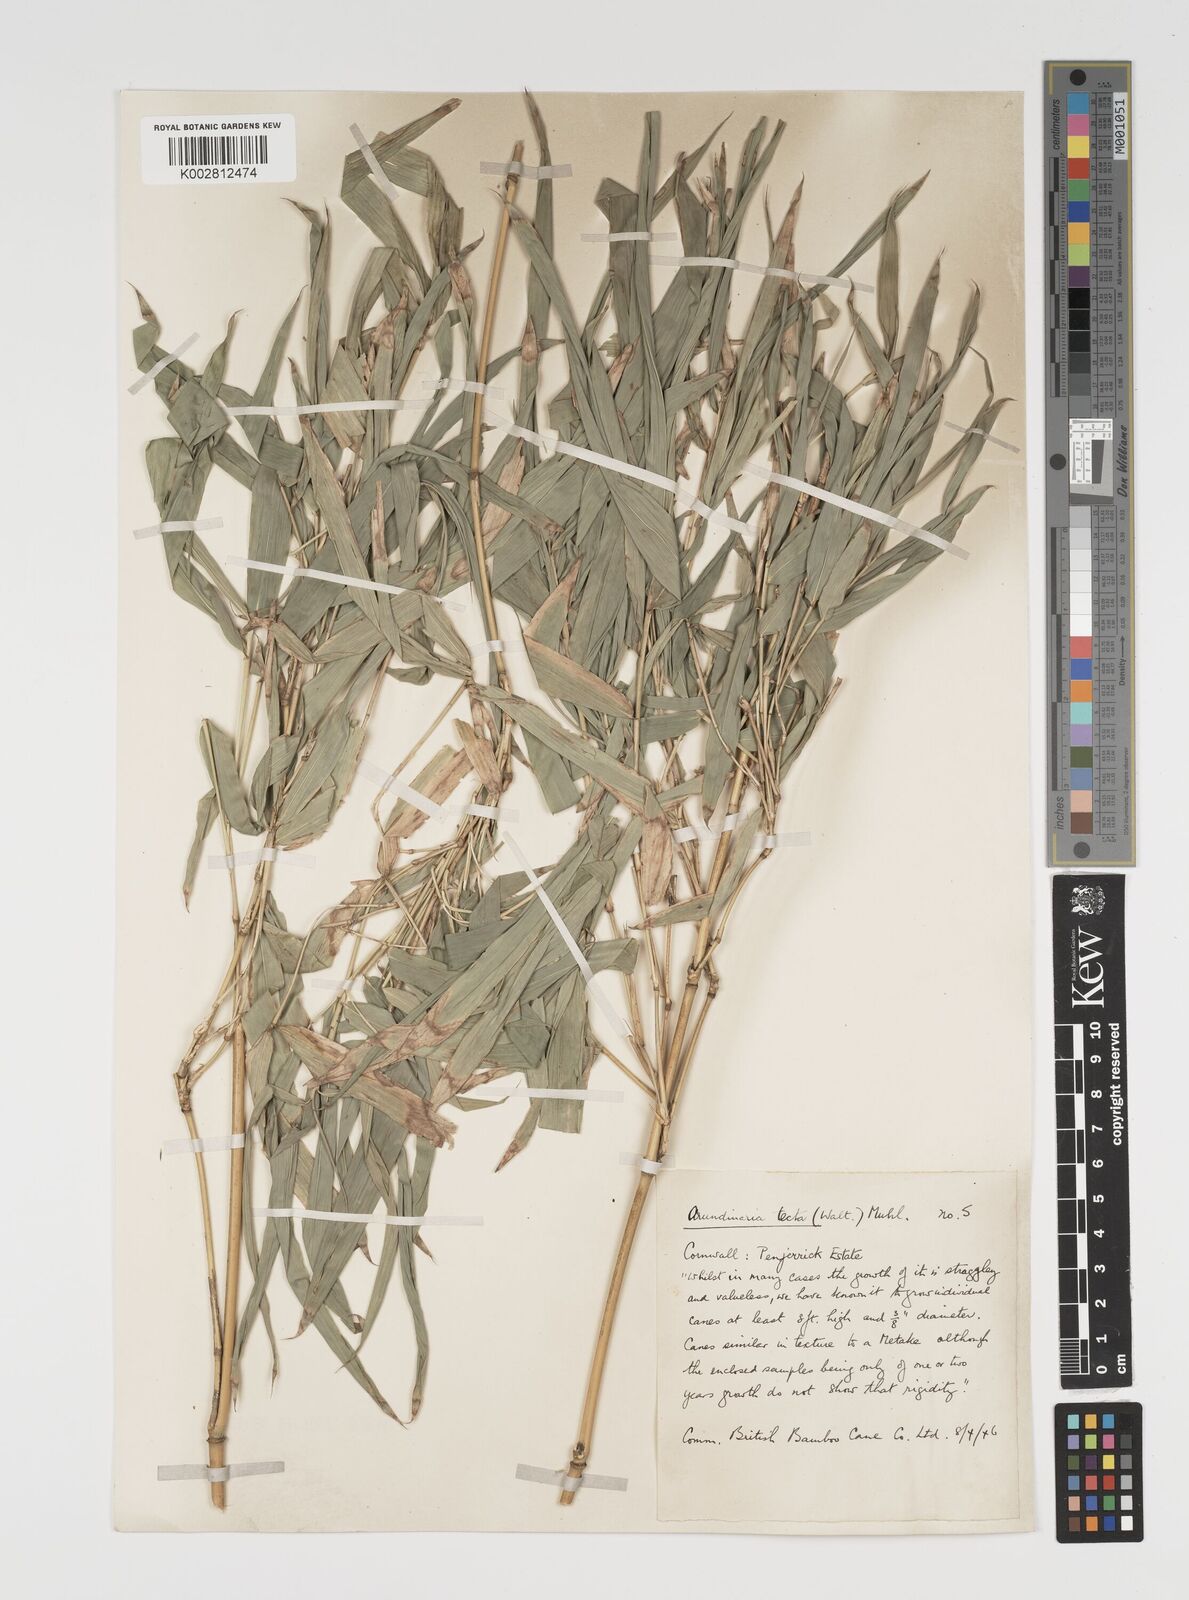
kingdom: Plantae
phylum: Tracheophyta
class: Liliopsida
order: Poales
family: Poaceae
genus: Arundinaria
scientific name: Arundinaria tecta
